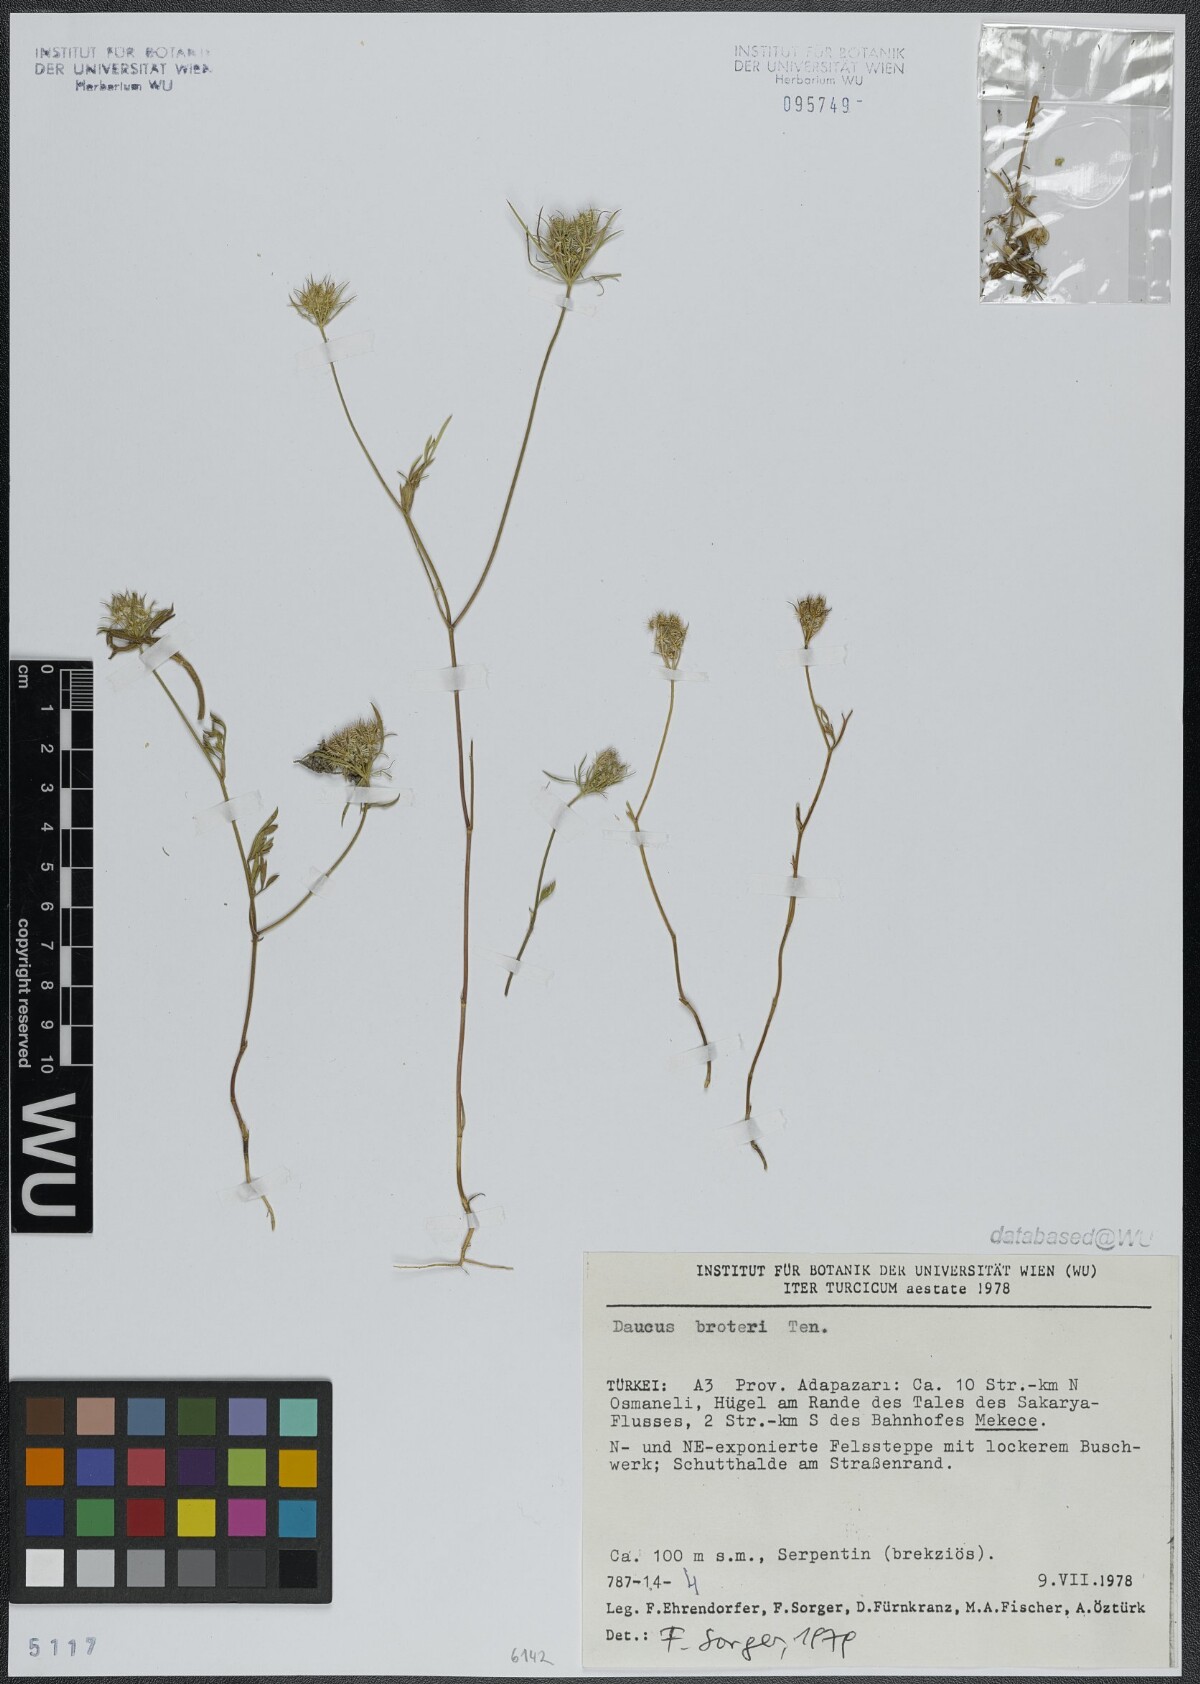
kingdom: Plantae
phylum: Tracheophyta
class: Magnoliopsida
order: Apiales
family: Apiaceae
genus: Daucus
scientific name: Daucus broteroi
